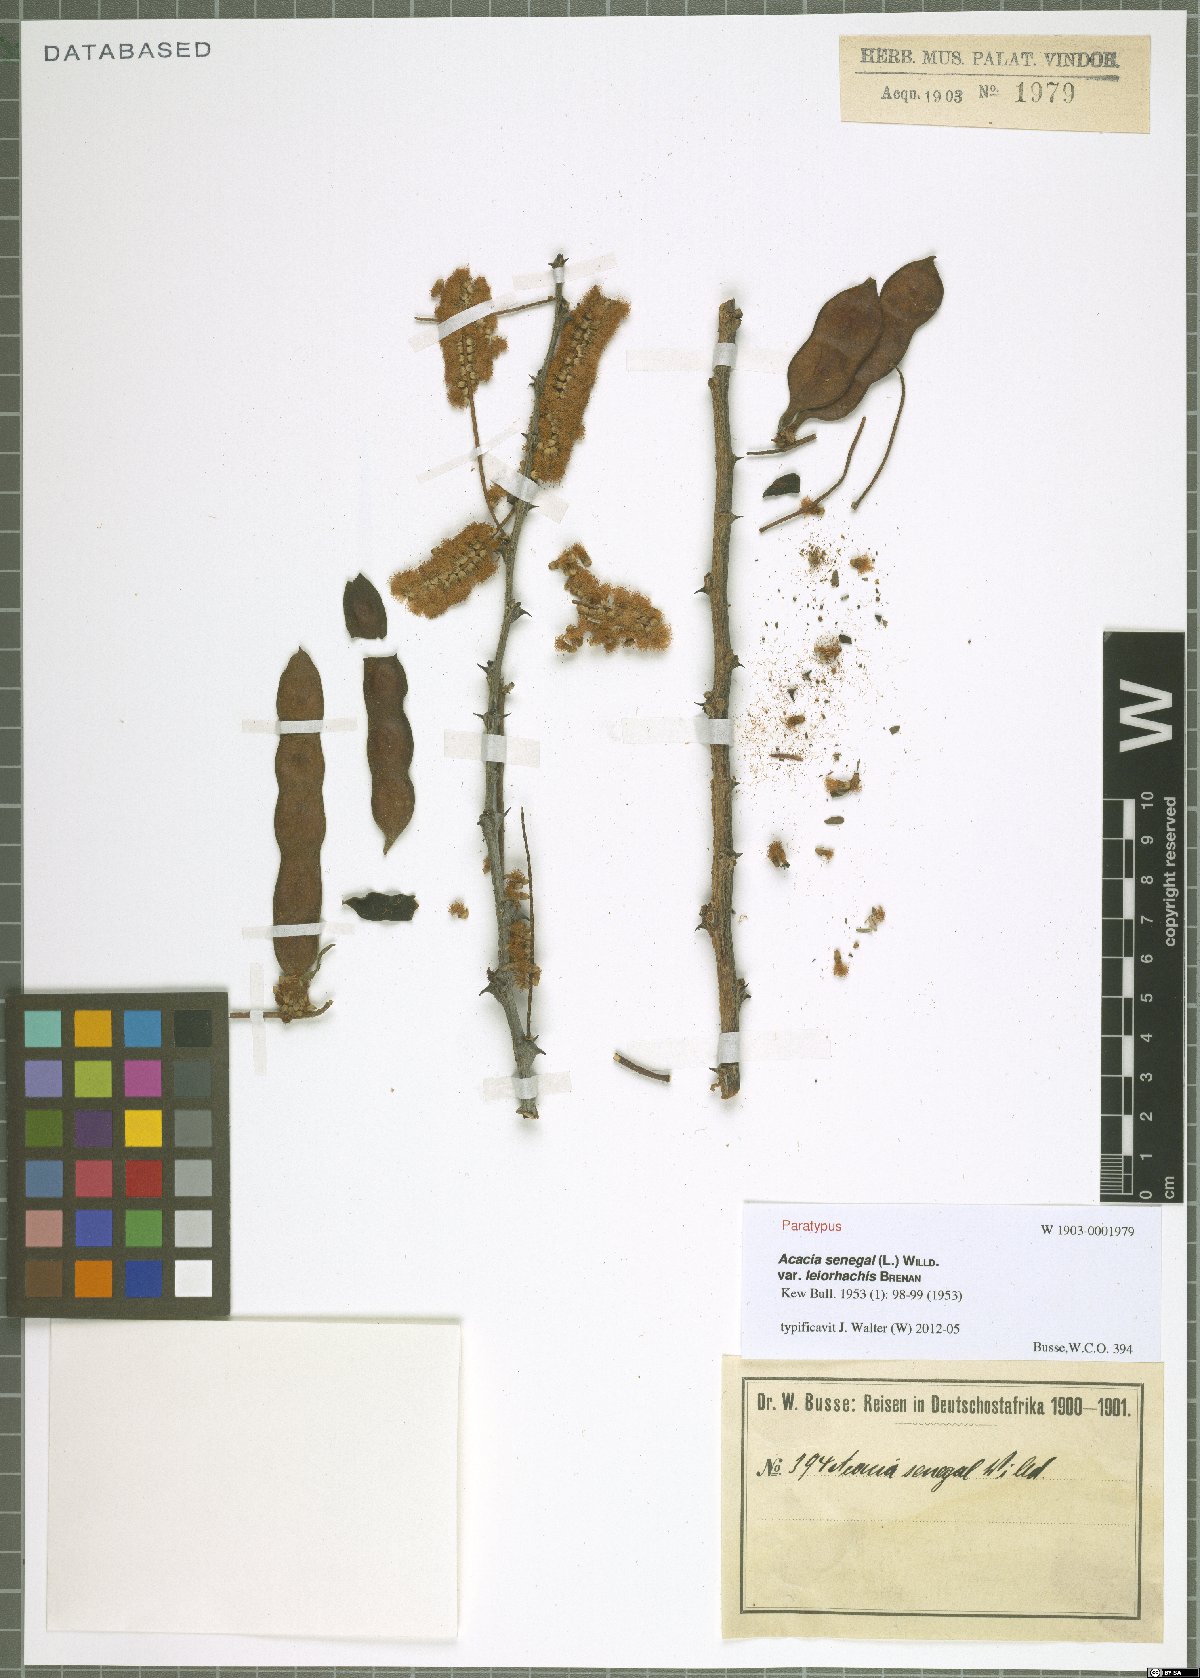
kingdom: Plantae
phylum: Tracheophyta
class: Magnoliopsida
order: Fabales
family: Fabaceae
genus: Senegalia
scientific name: Senegalia senegal
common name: Senegal-gum
